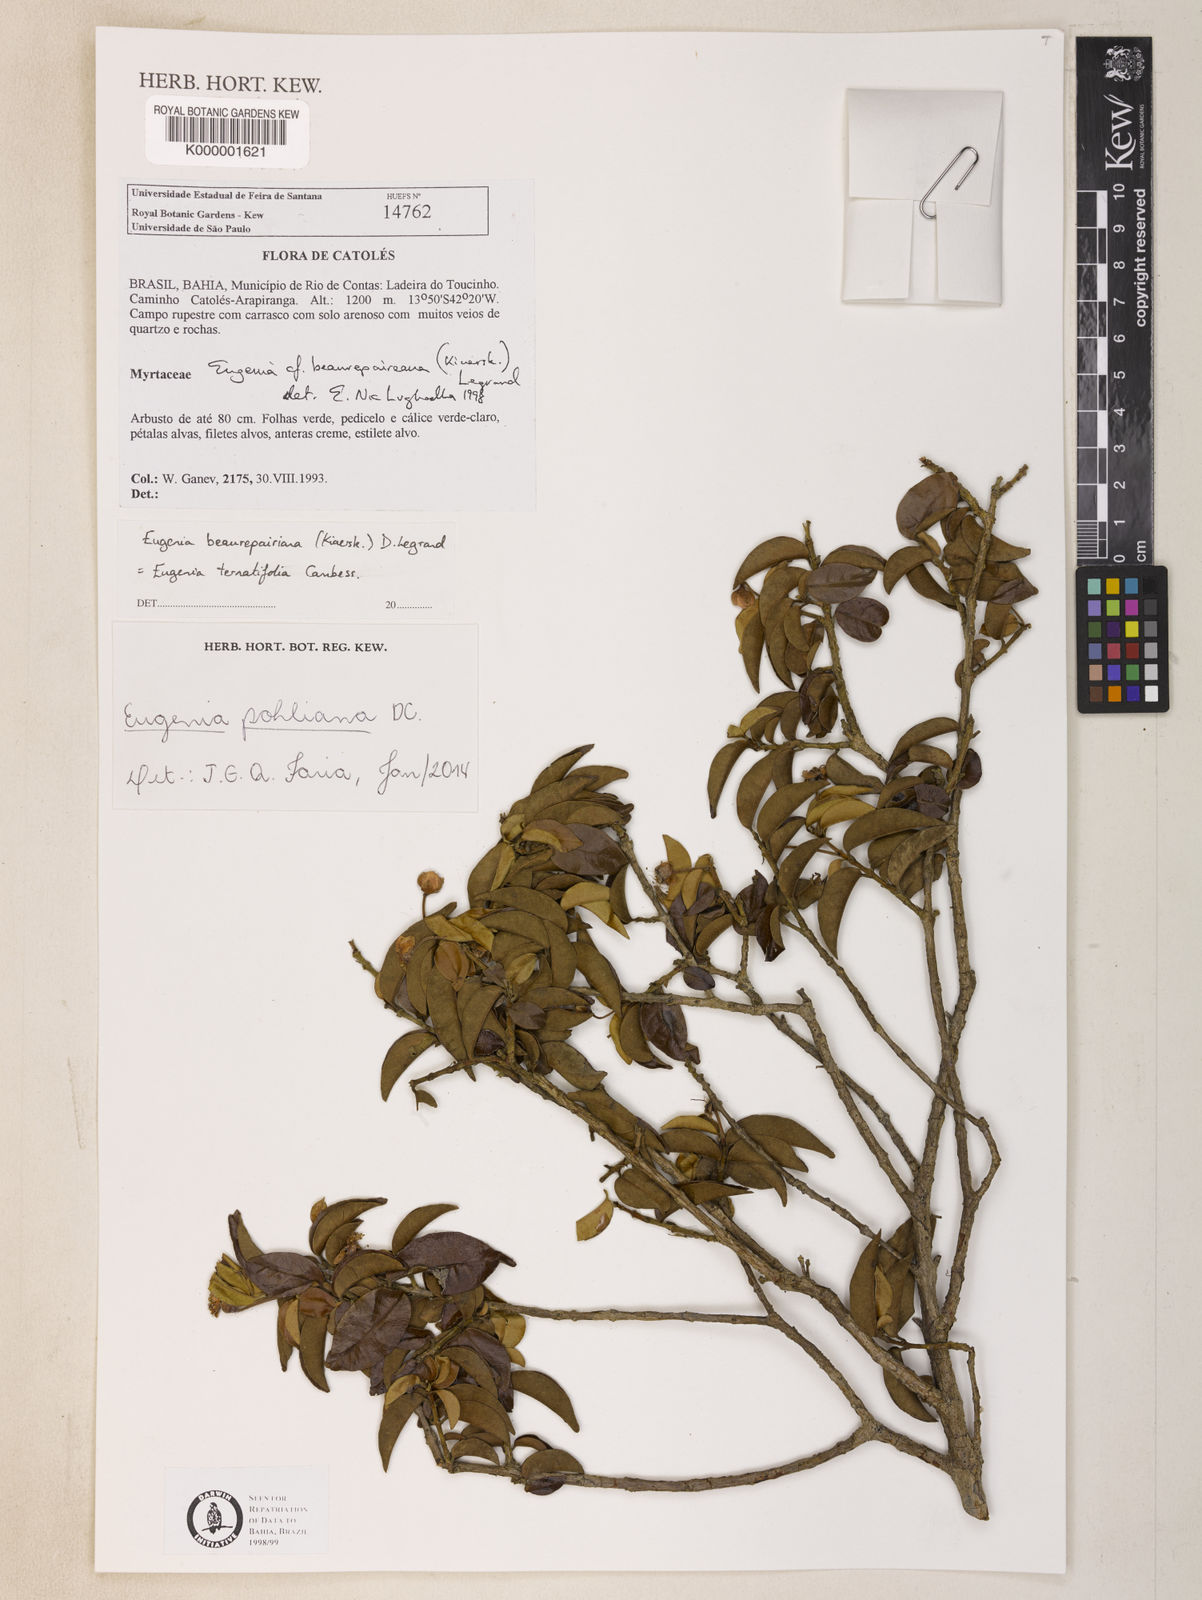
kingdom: Plantae
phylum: Tracheophyta
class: Magnoliopsida
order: Myrtales
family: Myrtaceae
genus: Eugenia
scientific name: Eugenia pohliana
